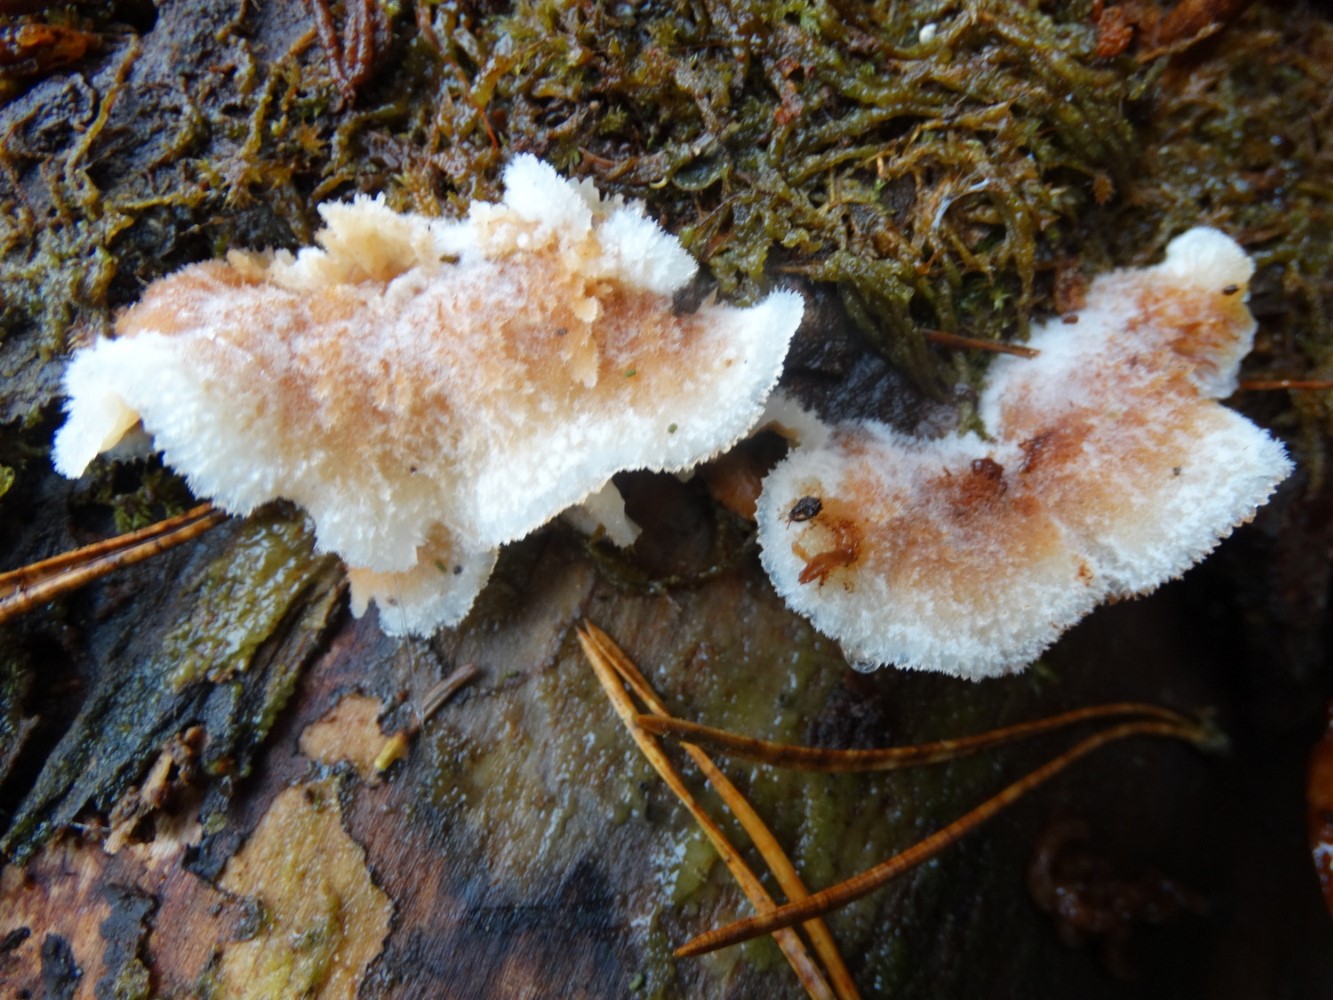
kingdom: Fungi
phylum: Basidiomycota
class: Agaricomycetes
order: Polyporales
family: Meruliaceae
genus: Phlebia
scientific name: Phlebia tremellosa
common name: bævrende åresvamp
